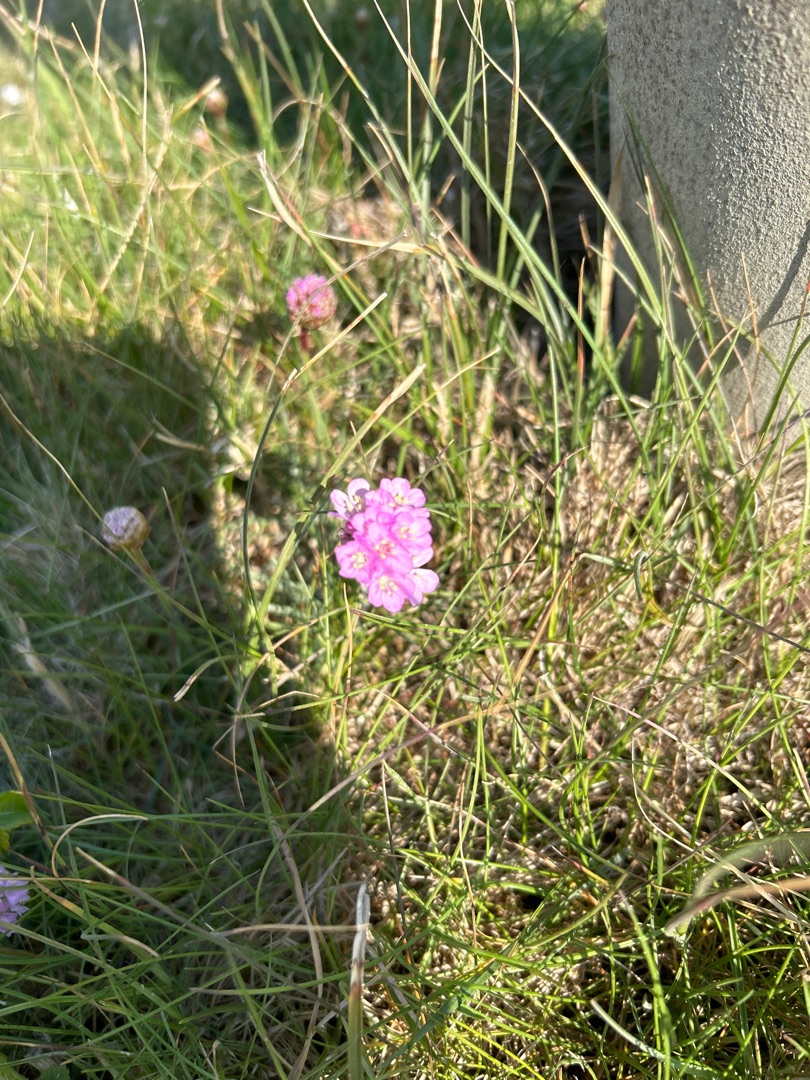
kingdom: Plantae
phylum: Tracheophyta
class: Magnoliopsida
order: Caryophyllales
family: Plumbaginaceae
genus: Armeria
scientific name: Armeria maritima
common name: Engelskgræs
